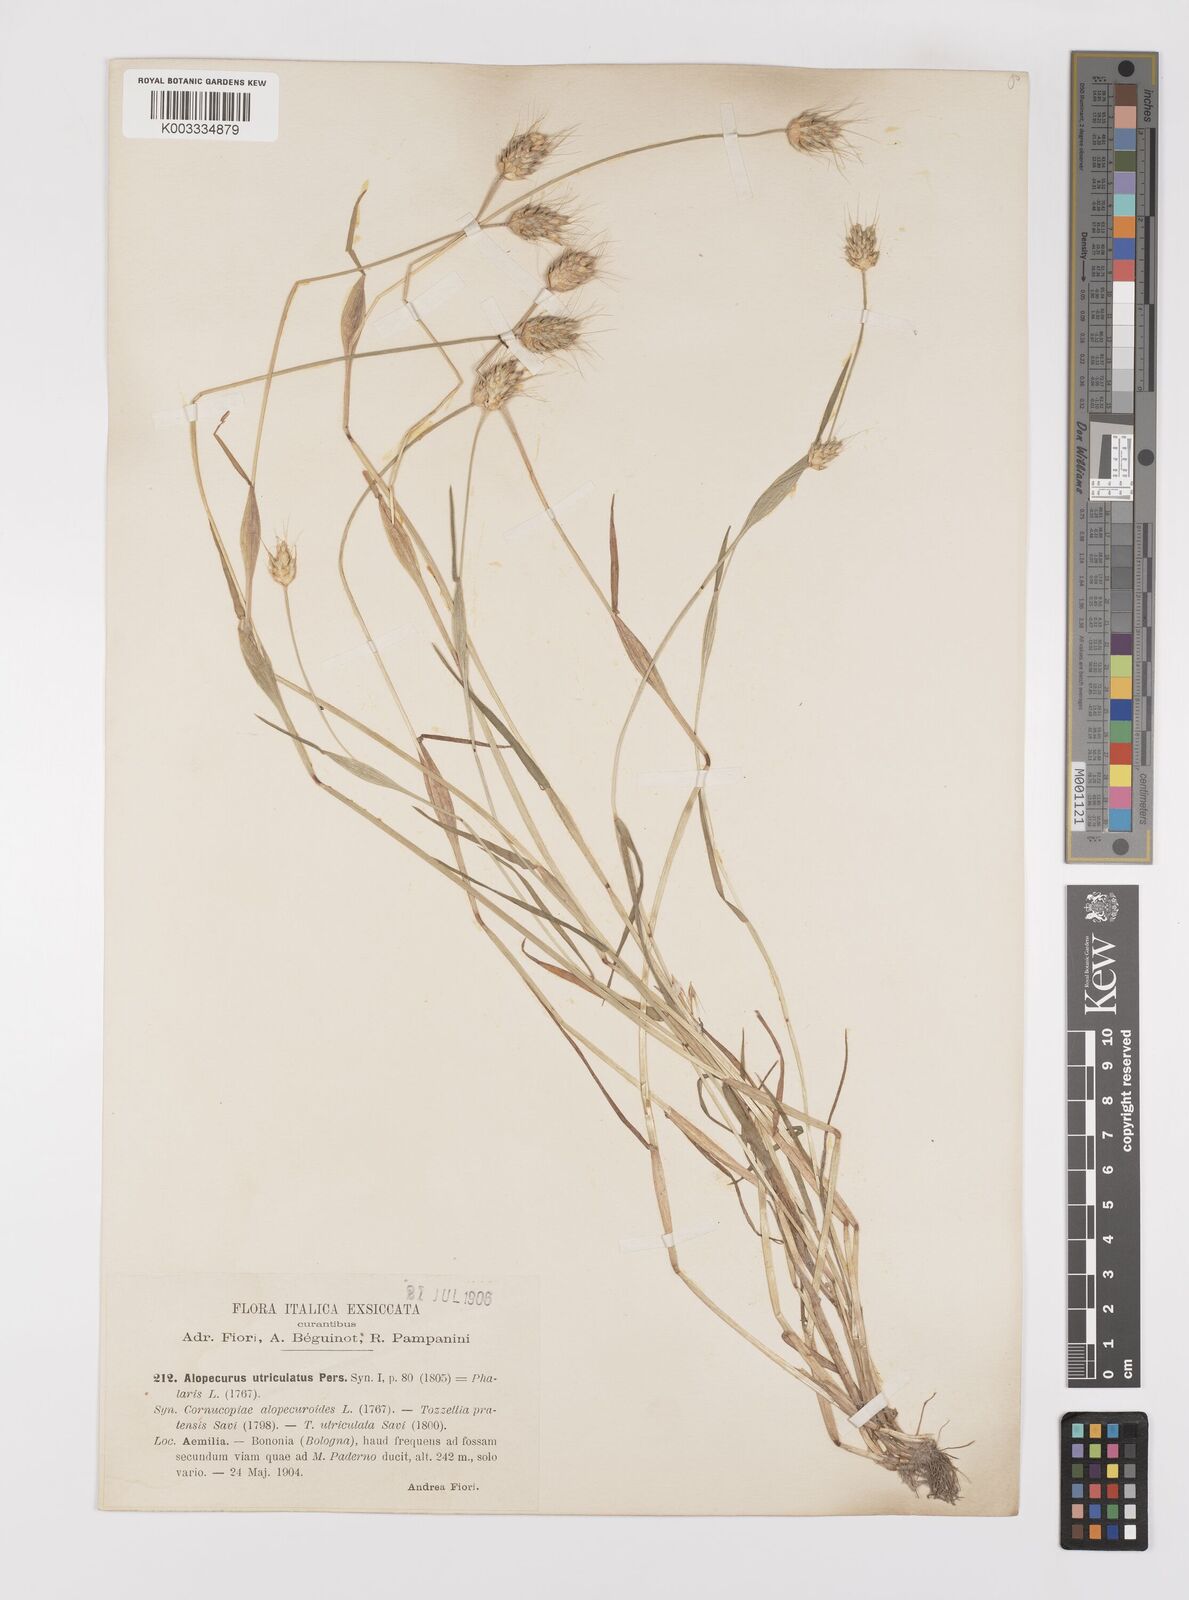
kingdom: Plantae
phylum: Tracheophyta
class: Liliopsida
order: Poales
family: Poaceae
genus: Alopecurus
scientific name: Alopecurus rendlei
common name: Rendle's meadow foxtail
